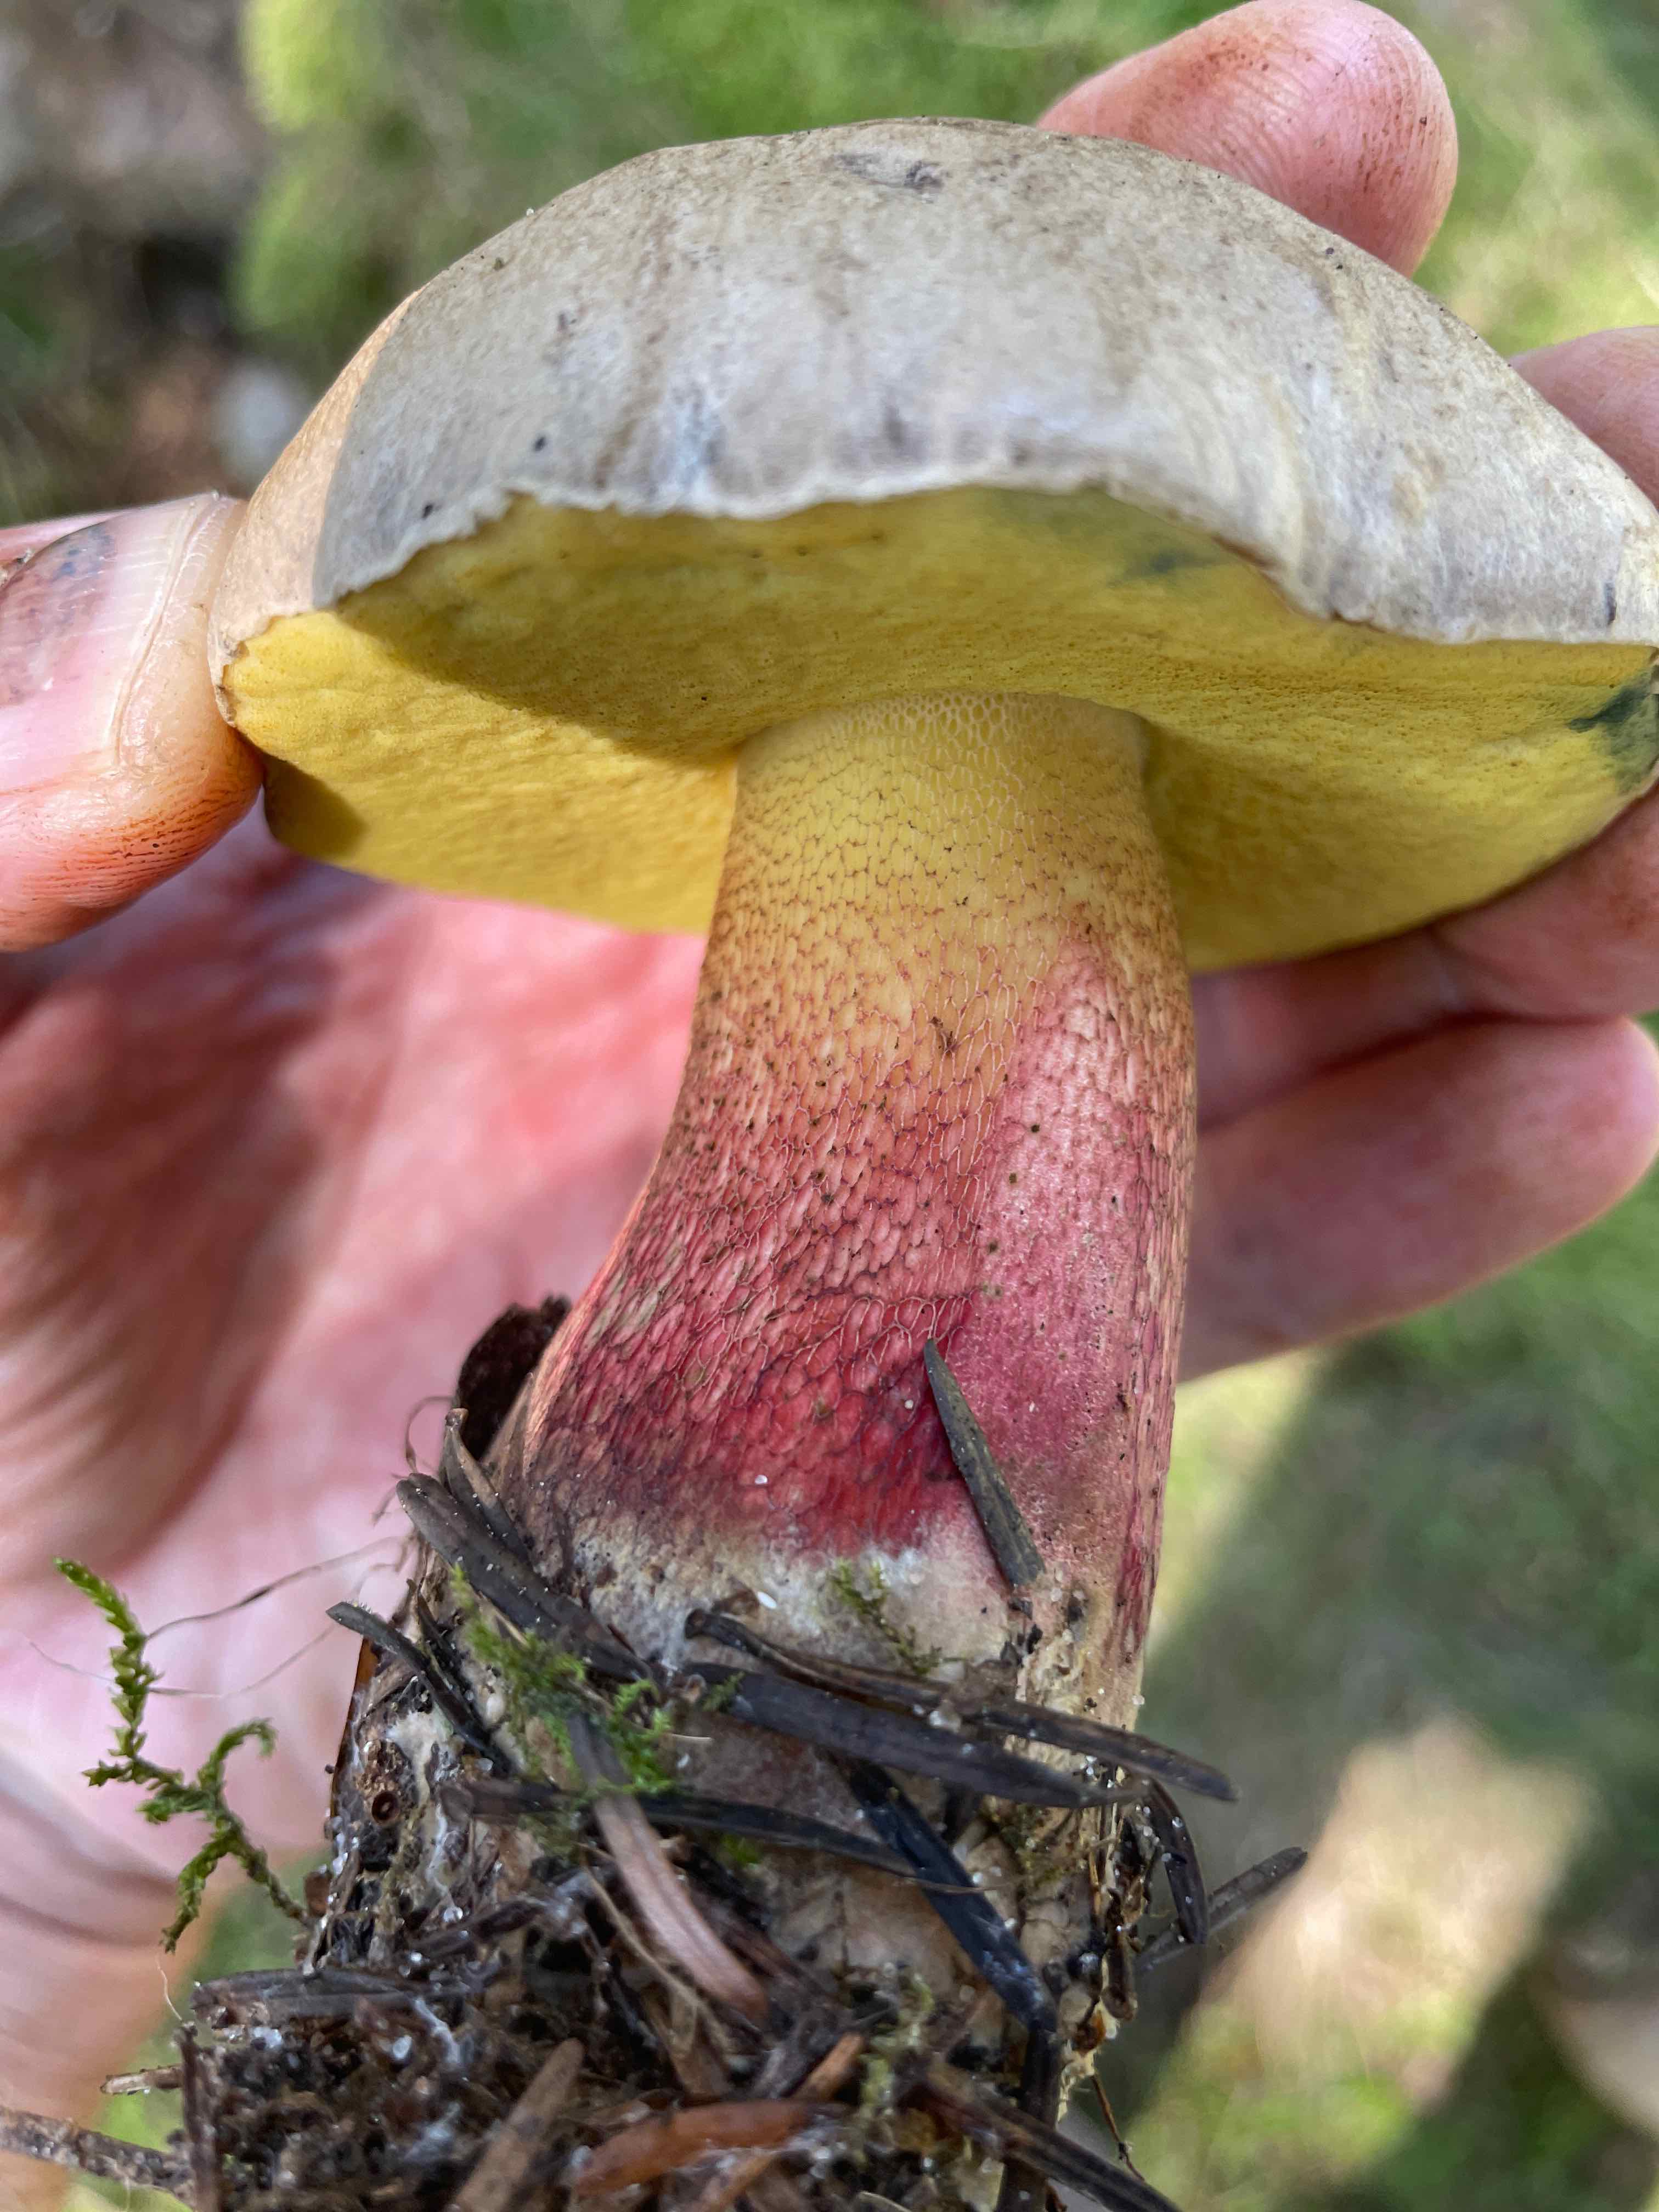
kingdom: Fungi
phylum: Basidiomycota
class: Agaricomycetes
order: Boletales
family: Boletaceae
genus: Caloboletus
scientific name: Caloboletus calopus
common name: skønfodet rørhat
